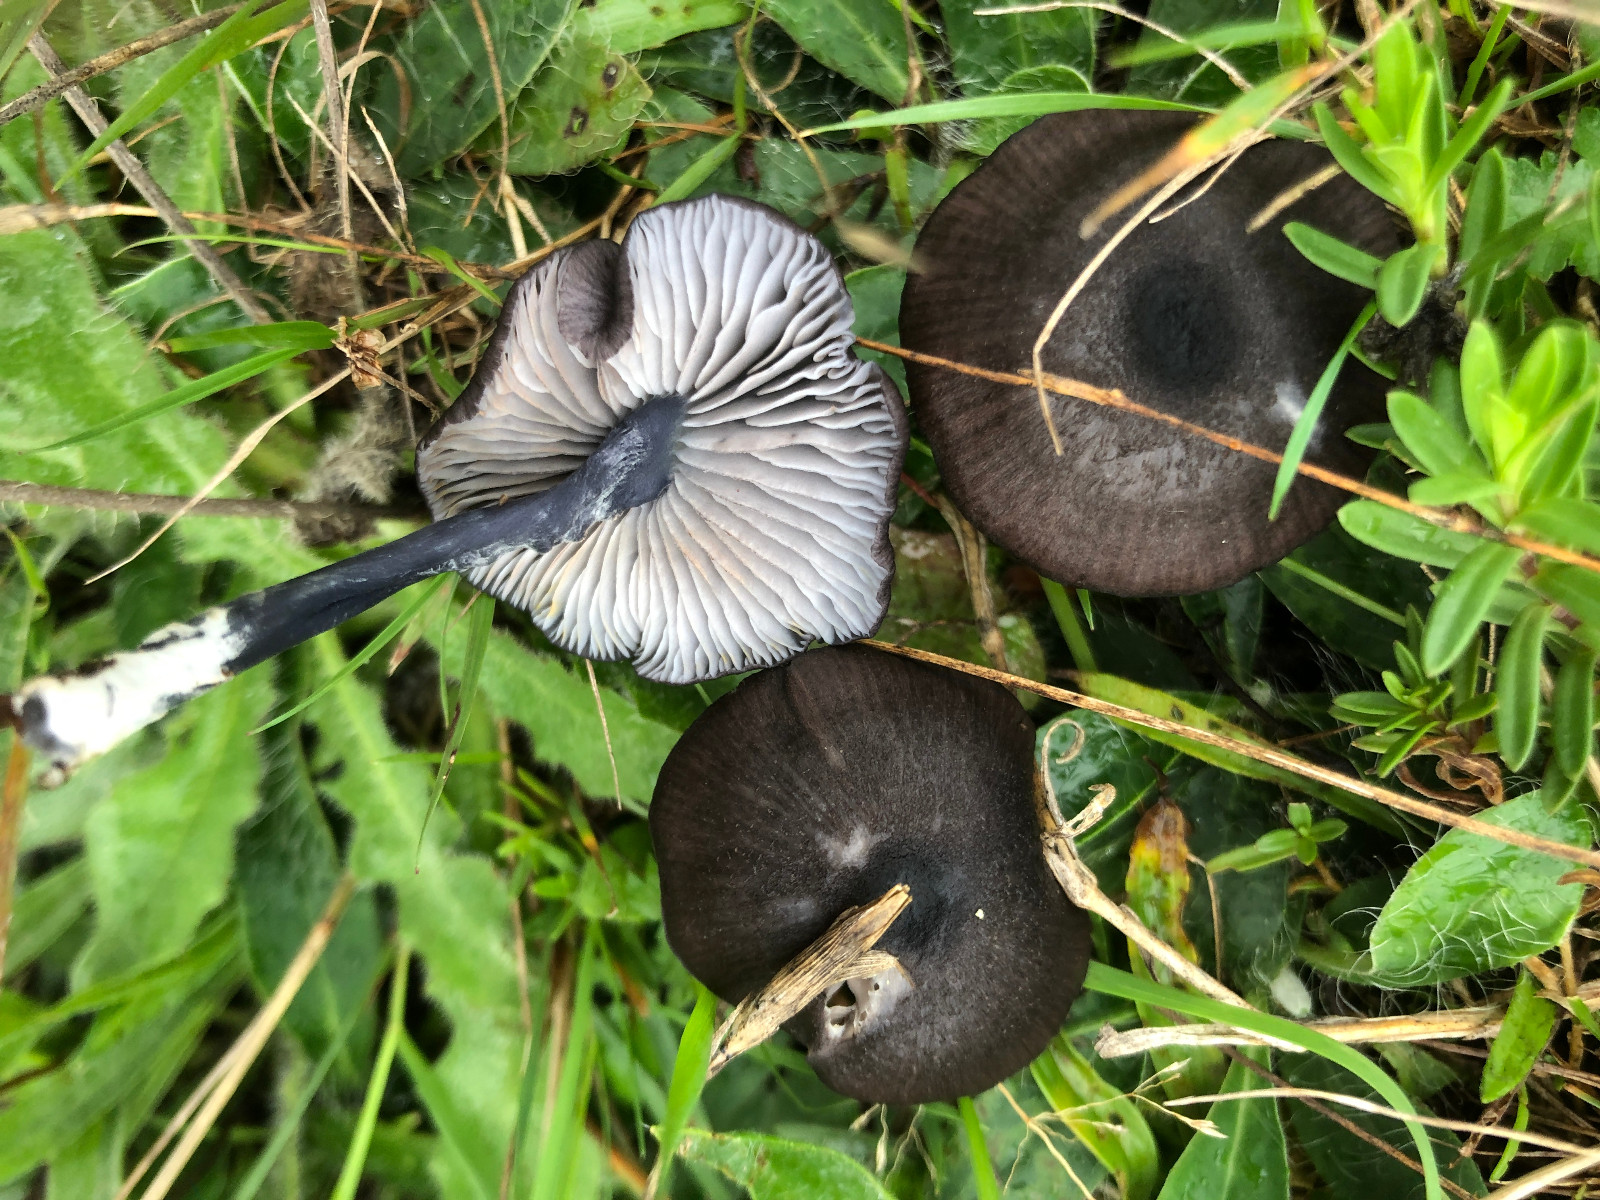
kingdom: Fungi
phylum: Basidiomycota
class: Agaricomycetes
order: Agaricales
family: Entolomataceae
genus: Entoloma
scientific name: Entoloma chalybeum
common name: blåbladet rødblad
